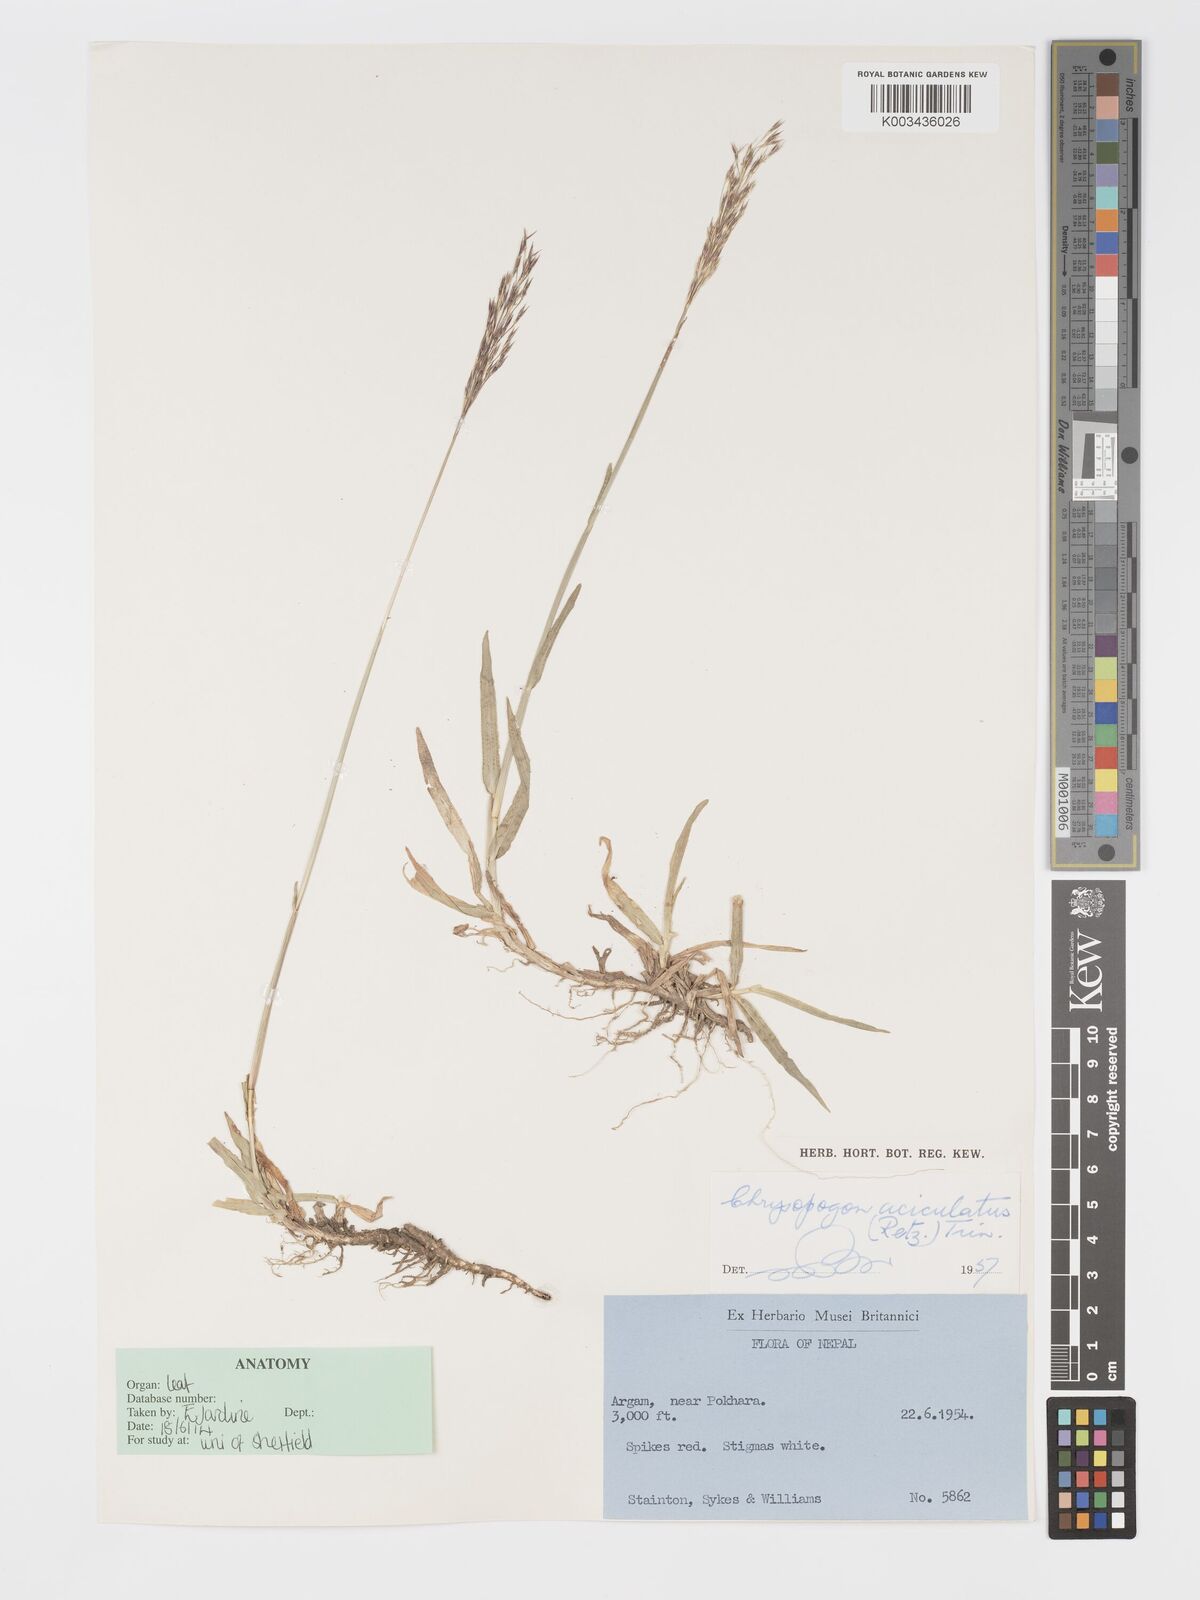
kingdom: Plantae
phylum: Tracheophyta
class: Liliopsida
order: Poales
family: Poaceae
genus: Chrysopogon
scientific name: Chrysopogon aciculatus
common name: Pilipiliula
